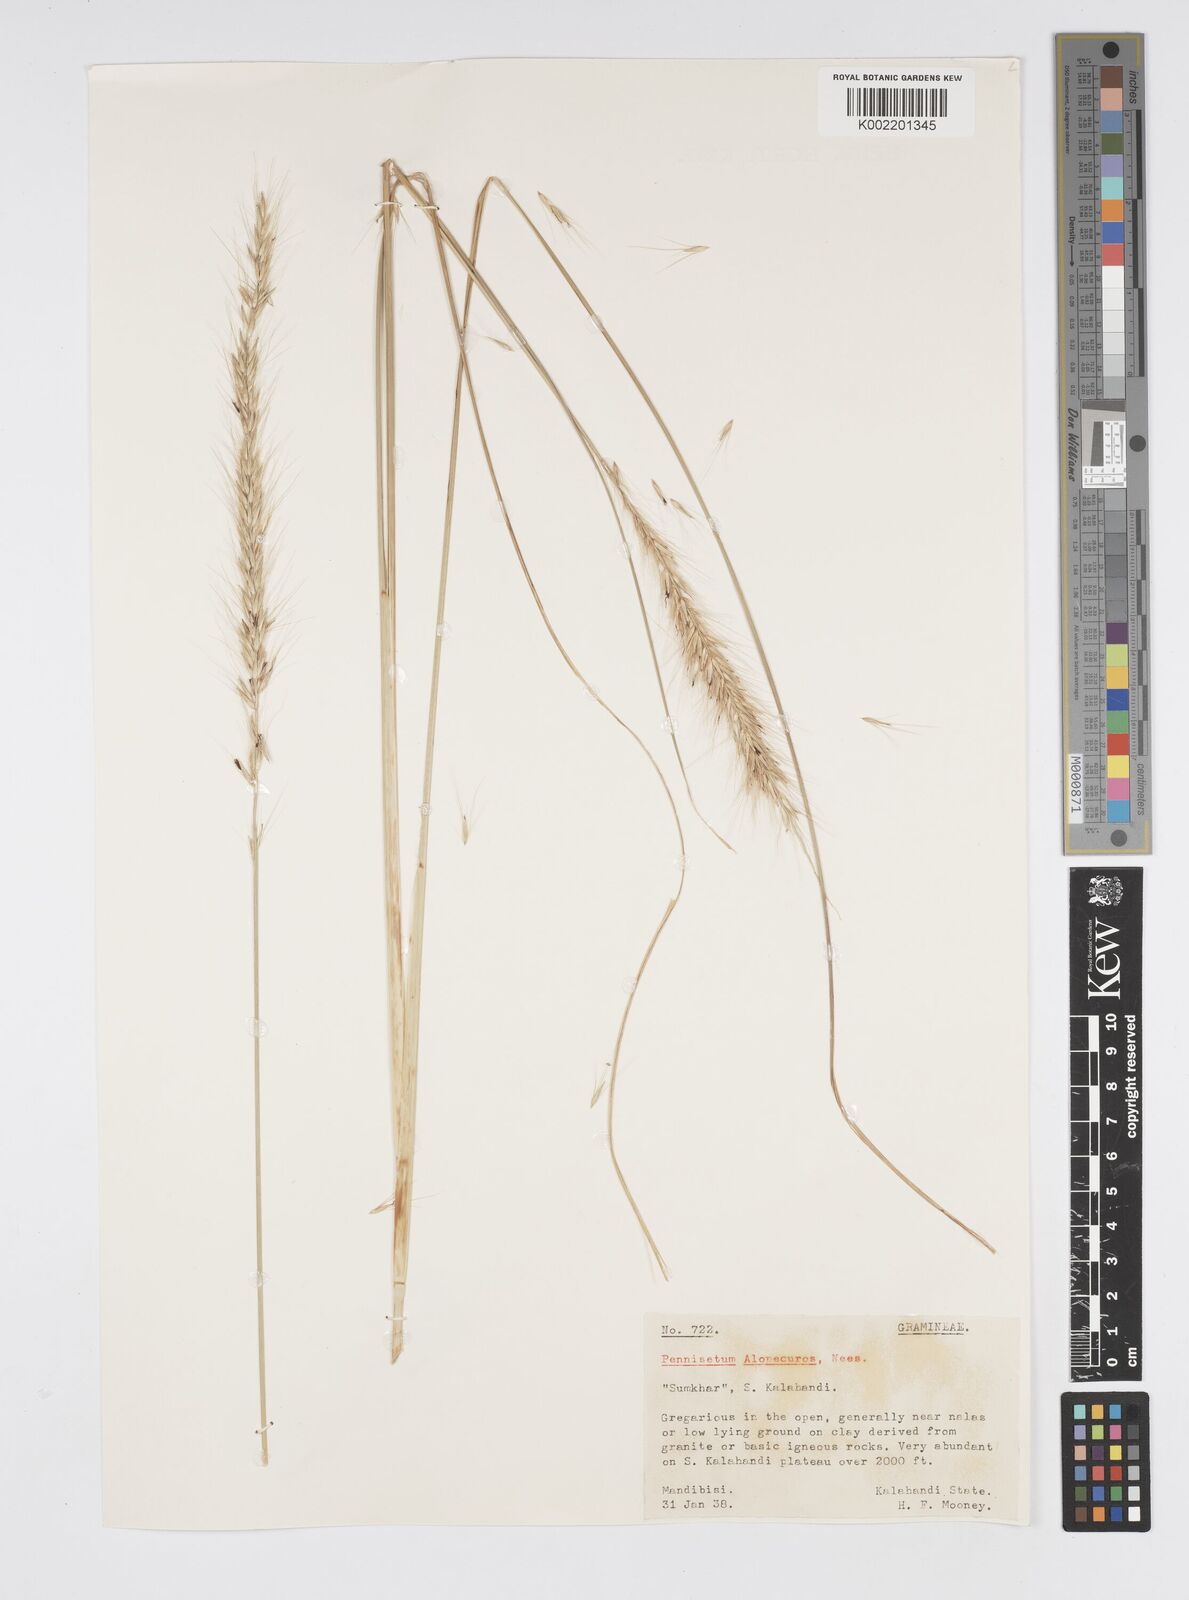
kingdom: Plantae
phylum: Tracheophyta
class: Liliopsida
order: Poales
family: Poaceae
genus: Cenchrus
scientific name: Cenchrus hohenackeri
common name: Moya grass
